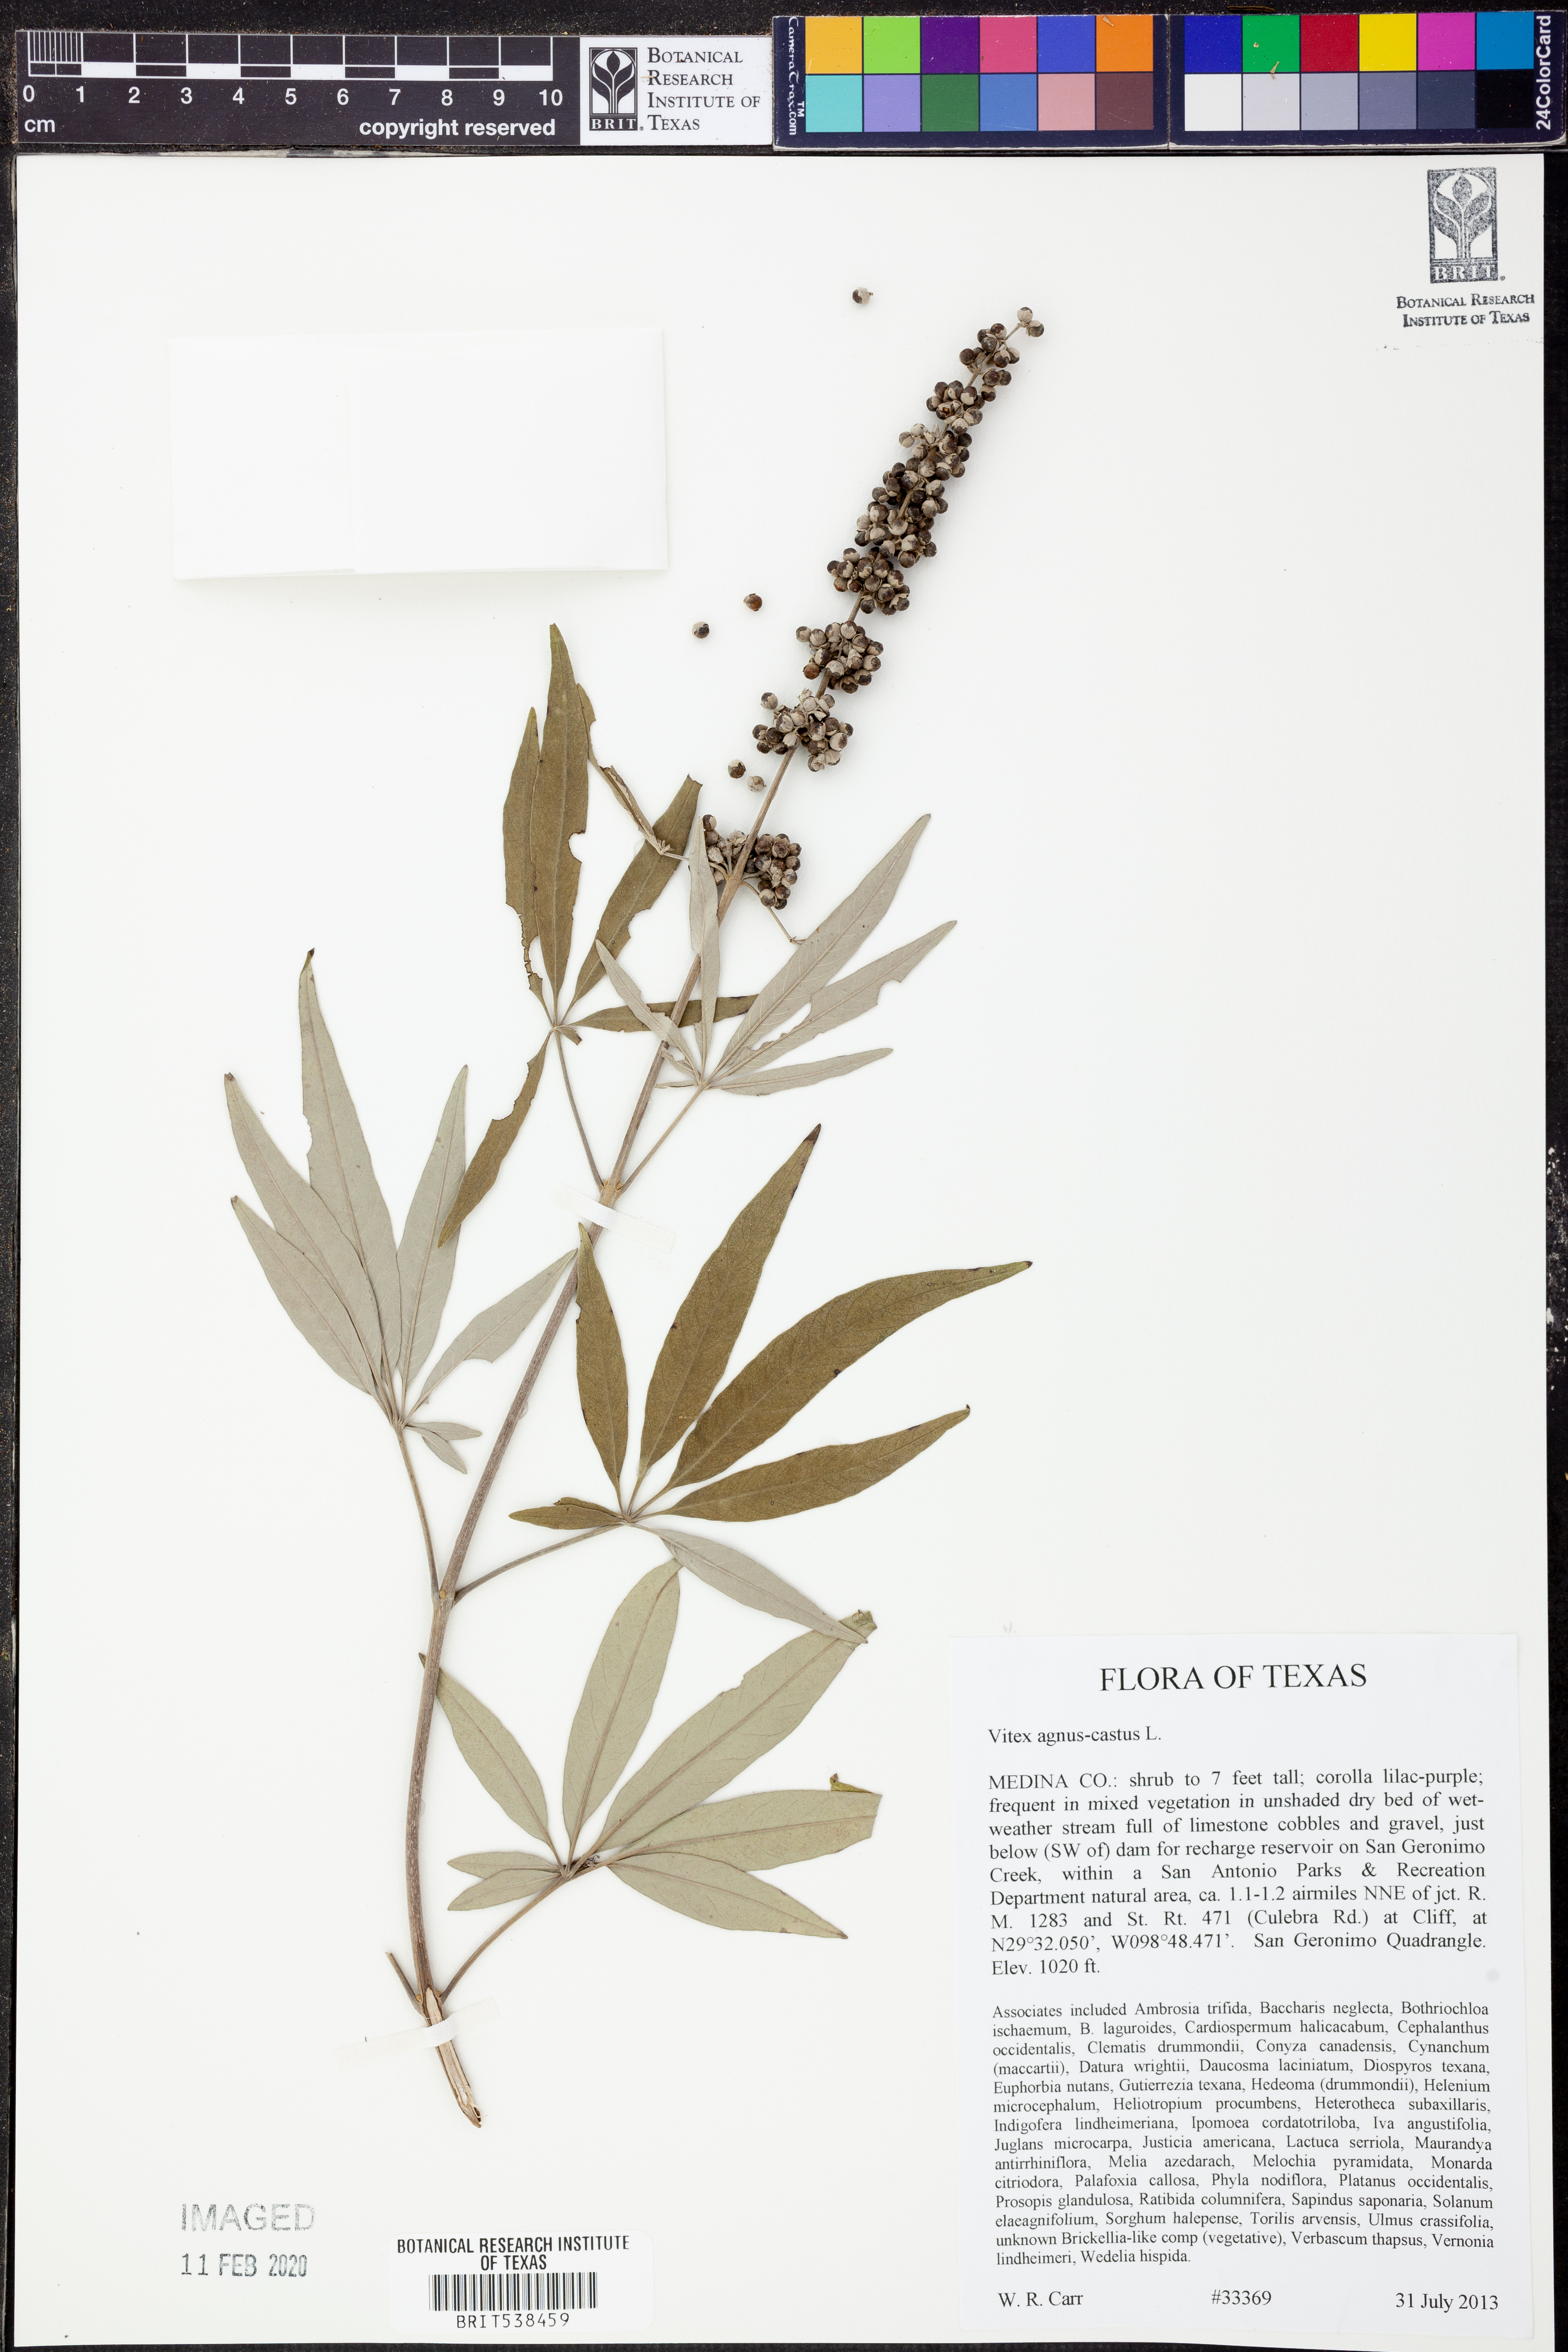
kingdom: Plantae
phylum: Tracheophyta
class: Magnoliopsida
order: Lamiales
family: Lamiaceae
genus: Vitex
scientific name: Vitex agnus-castus
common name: Chasteberry
